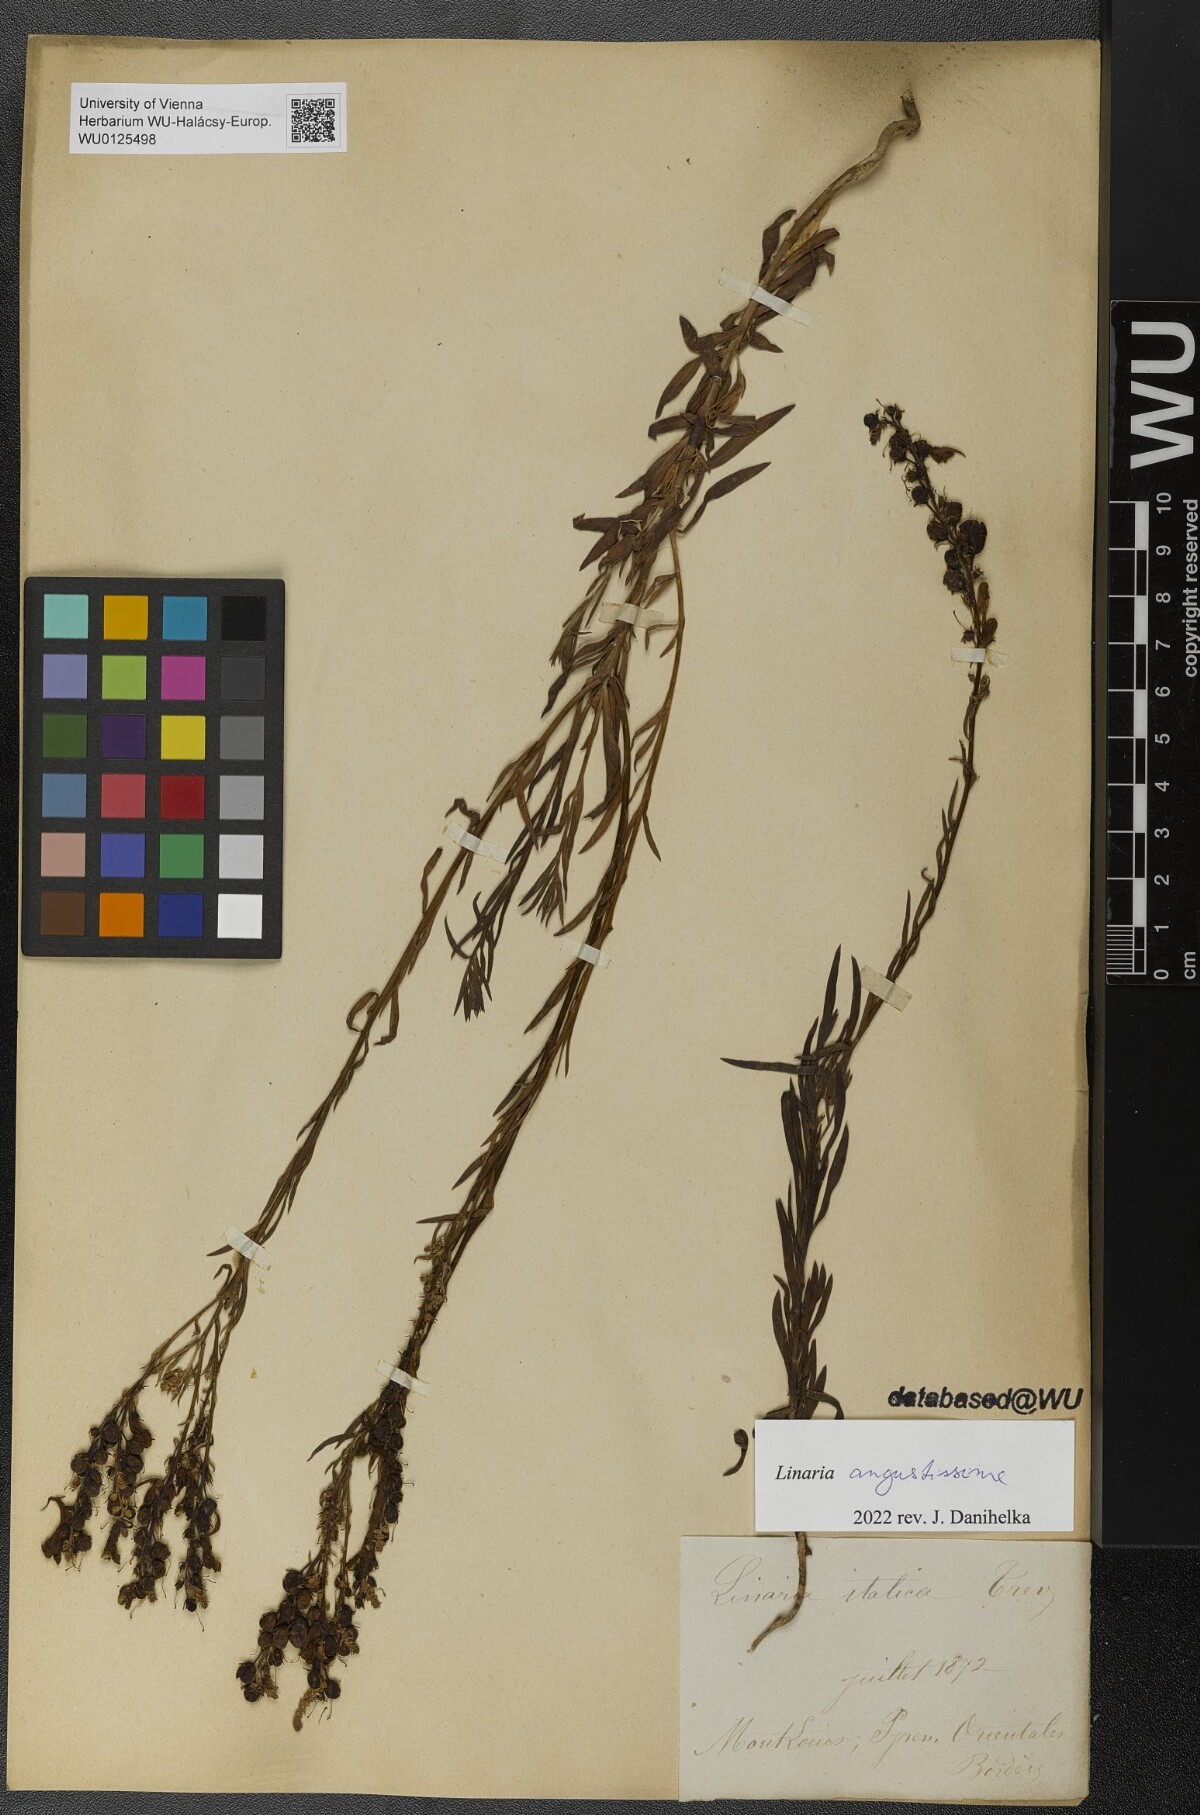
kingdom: Plantae
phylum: Tracheophyta
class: Magnoliopsida
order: Lamiales
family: Plantaginaceae
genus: Linaria
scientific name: Linaria angustissima
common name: Italian toadflax
